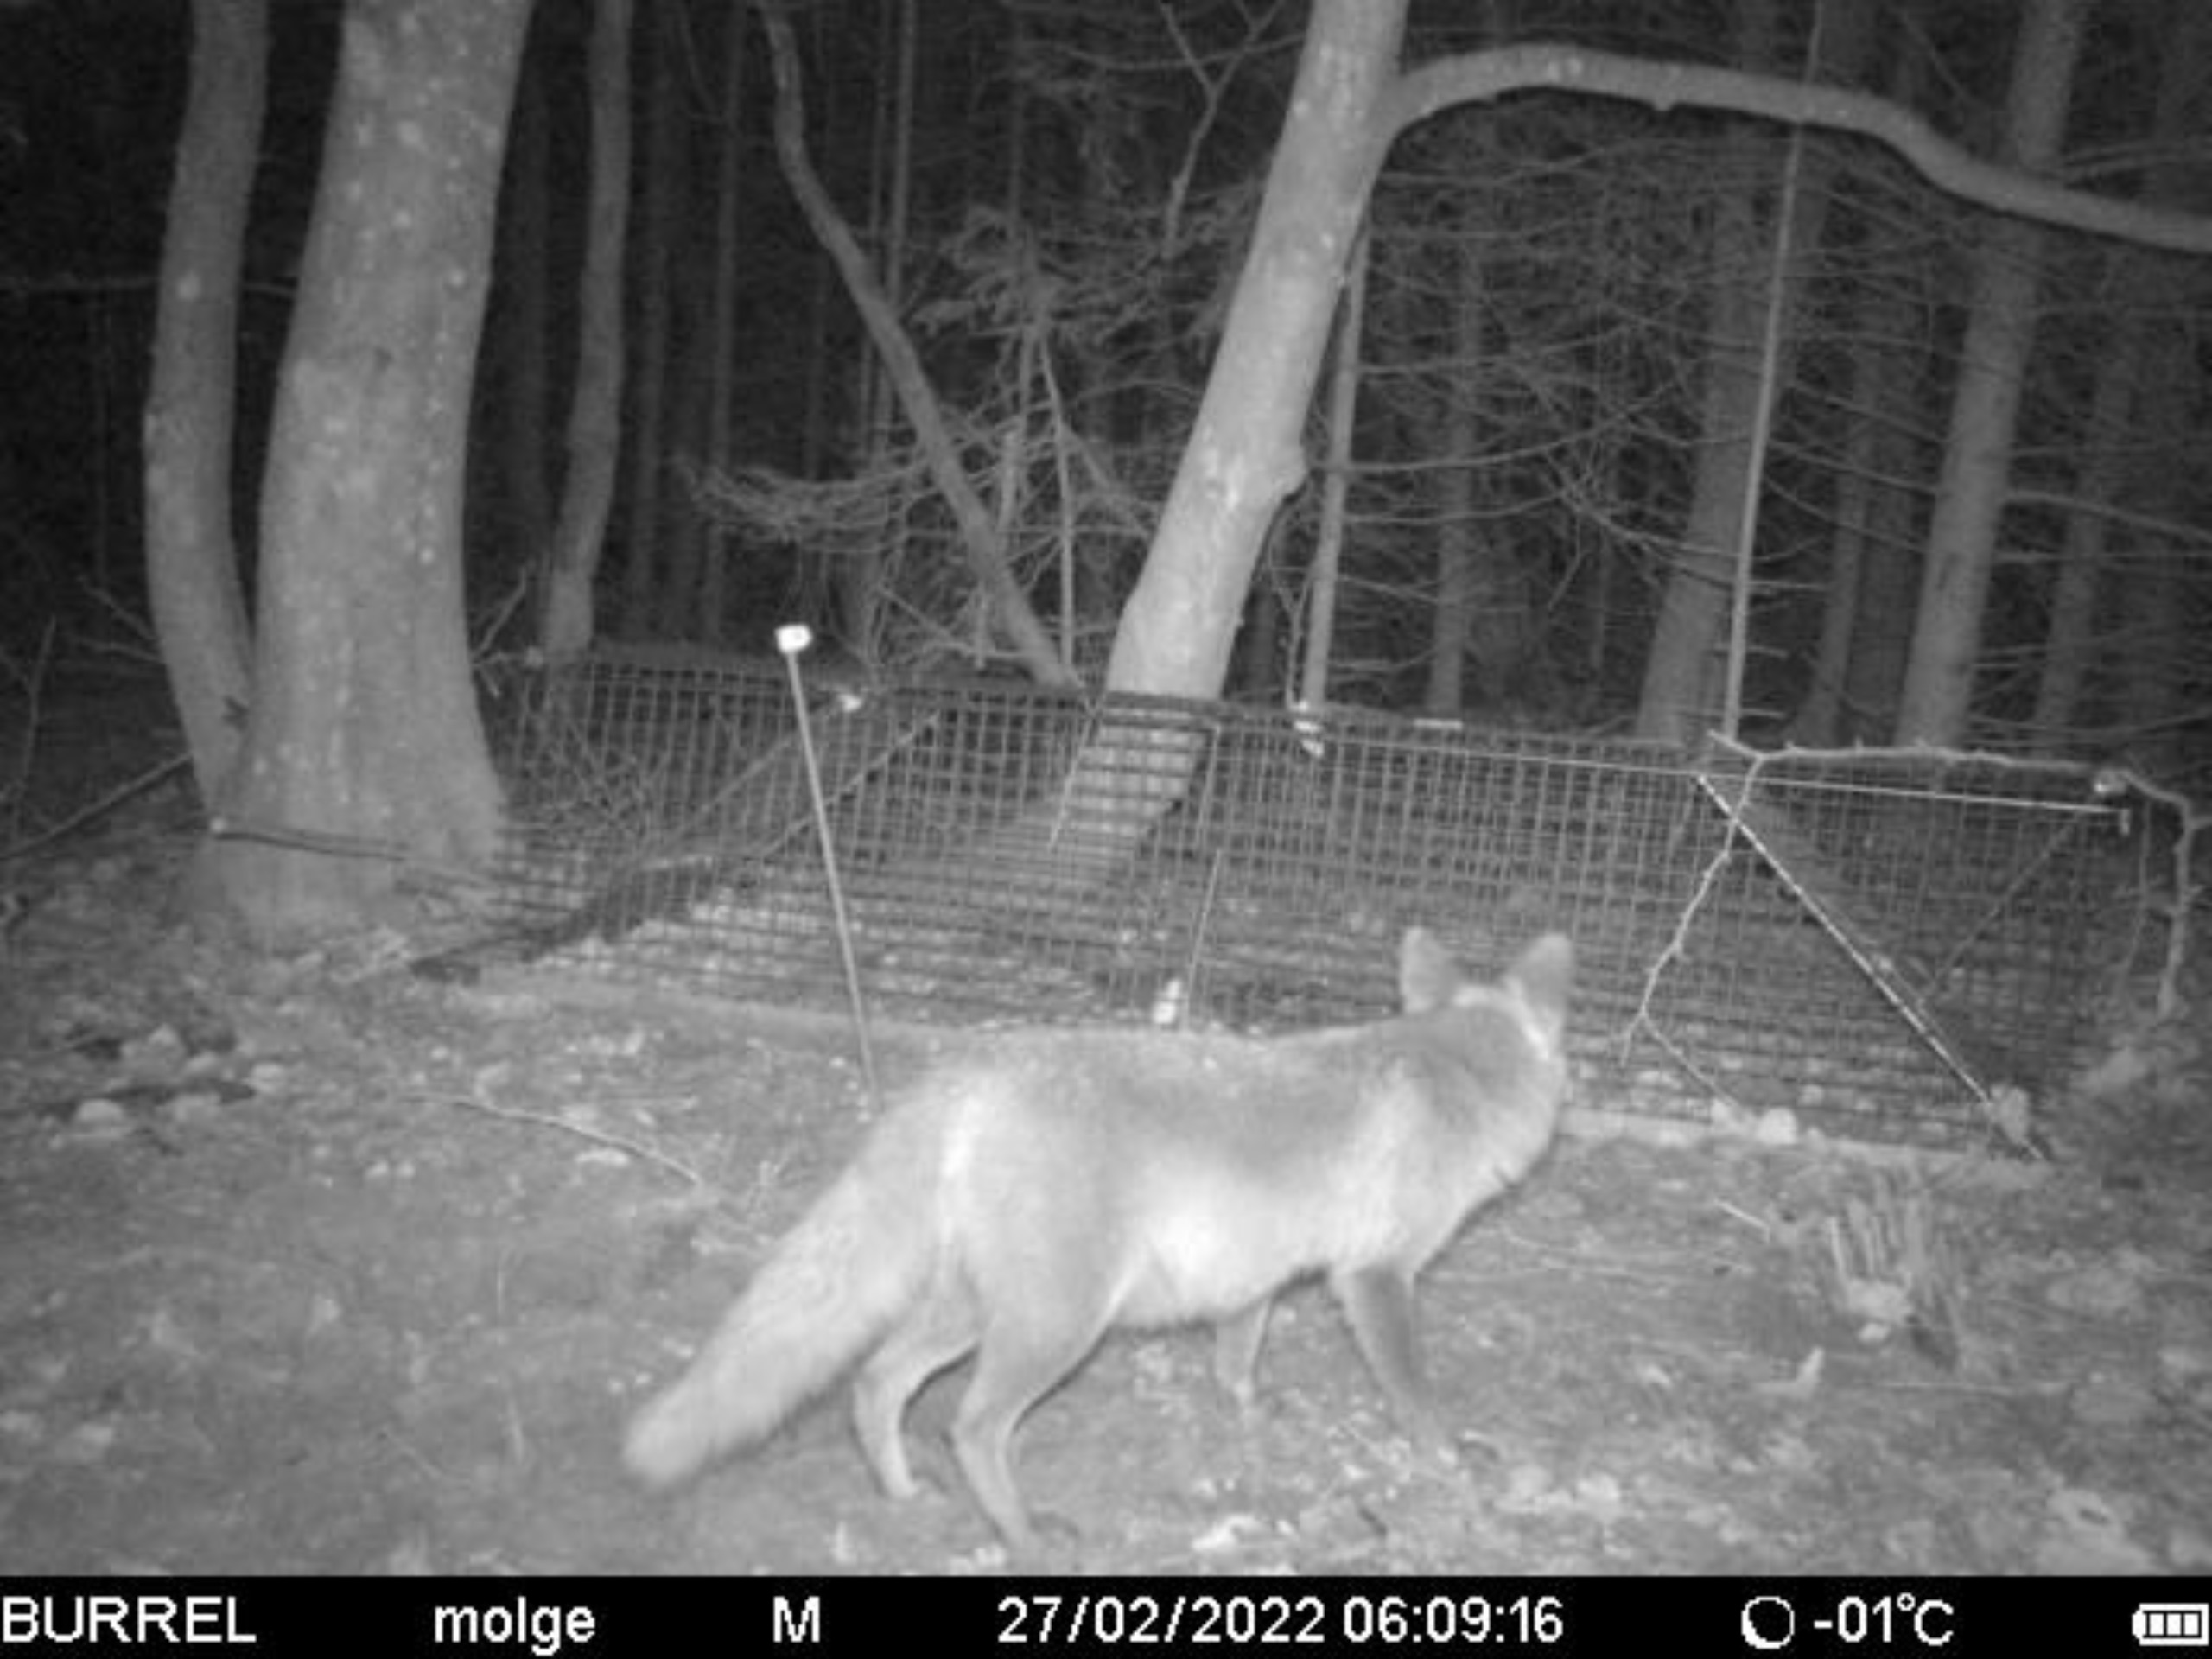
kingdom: Animalia
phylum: Chordata
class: Mammalia
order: Carnivora
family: Canidae
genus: Vulpes
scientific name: Vulpes vulpes
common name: Ræv
